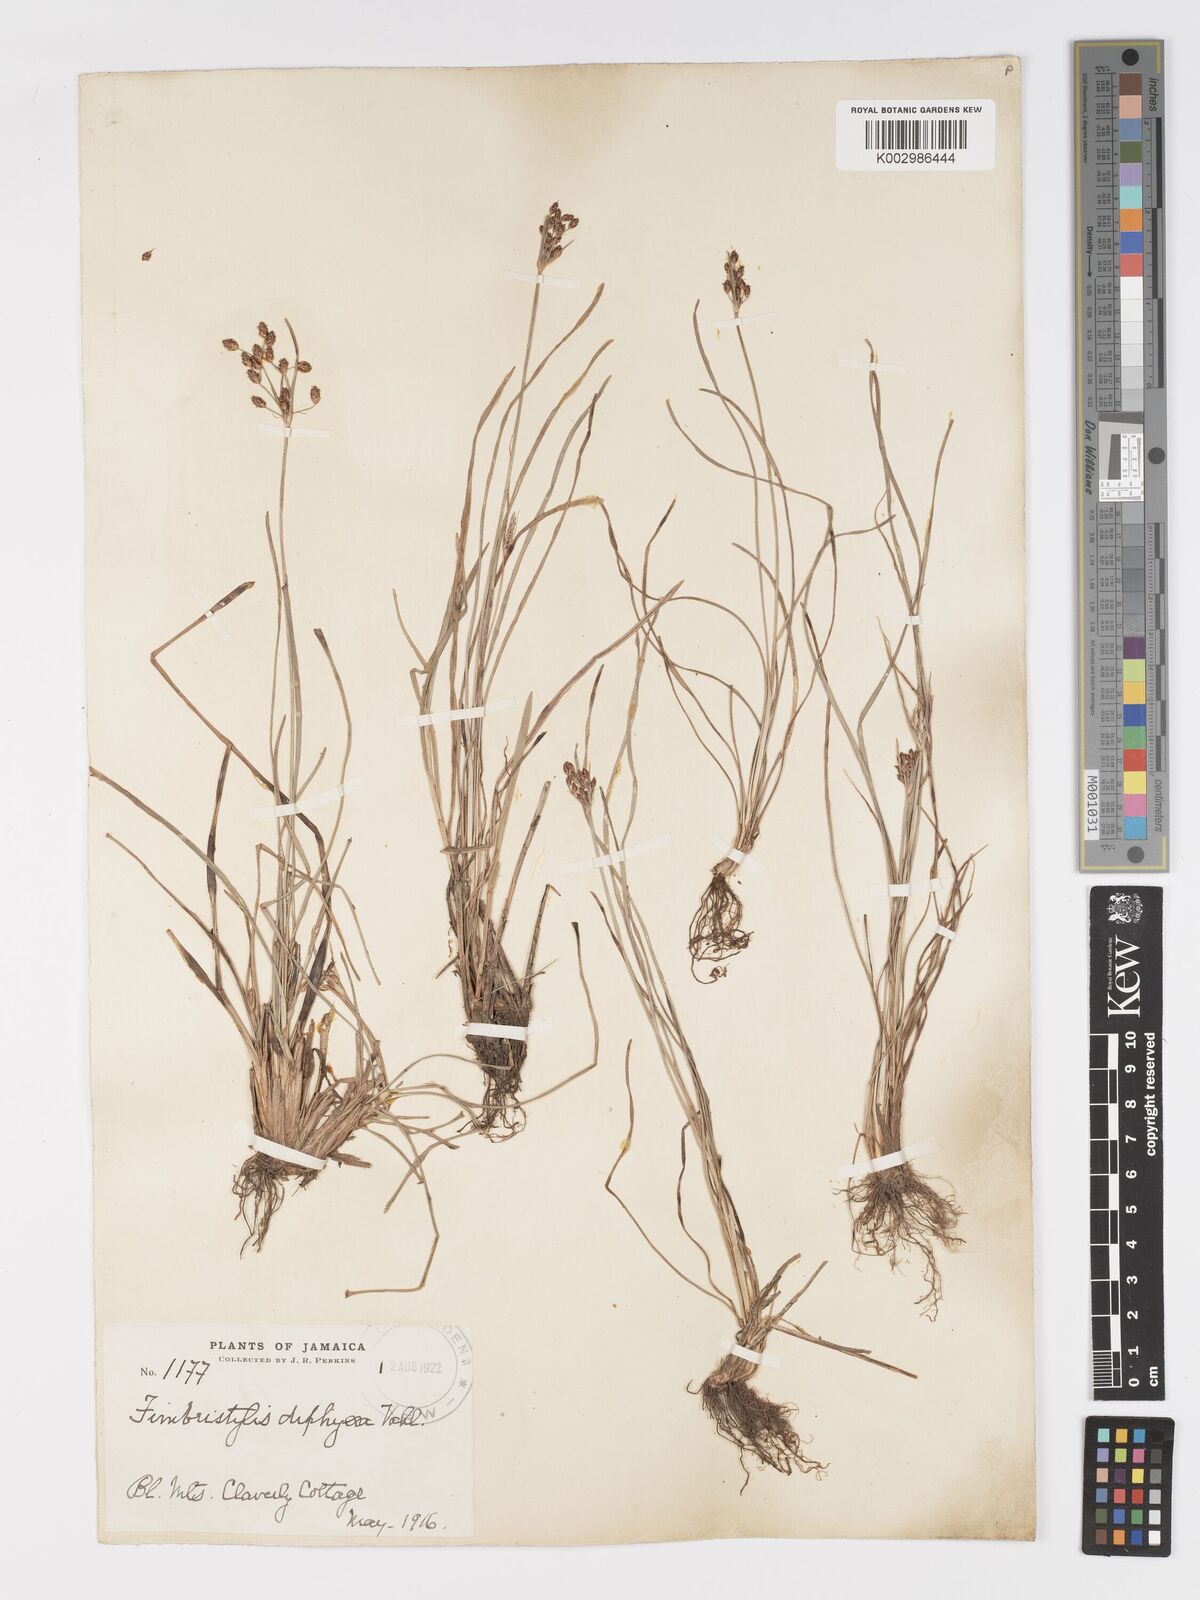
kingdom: Plantae
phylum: Tracheophyta
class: Liliopsida
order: Poales
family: Cyperaceae
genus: Fimbristylis
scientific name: Fimbristylis dichotoma
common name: Forked fimbry
